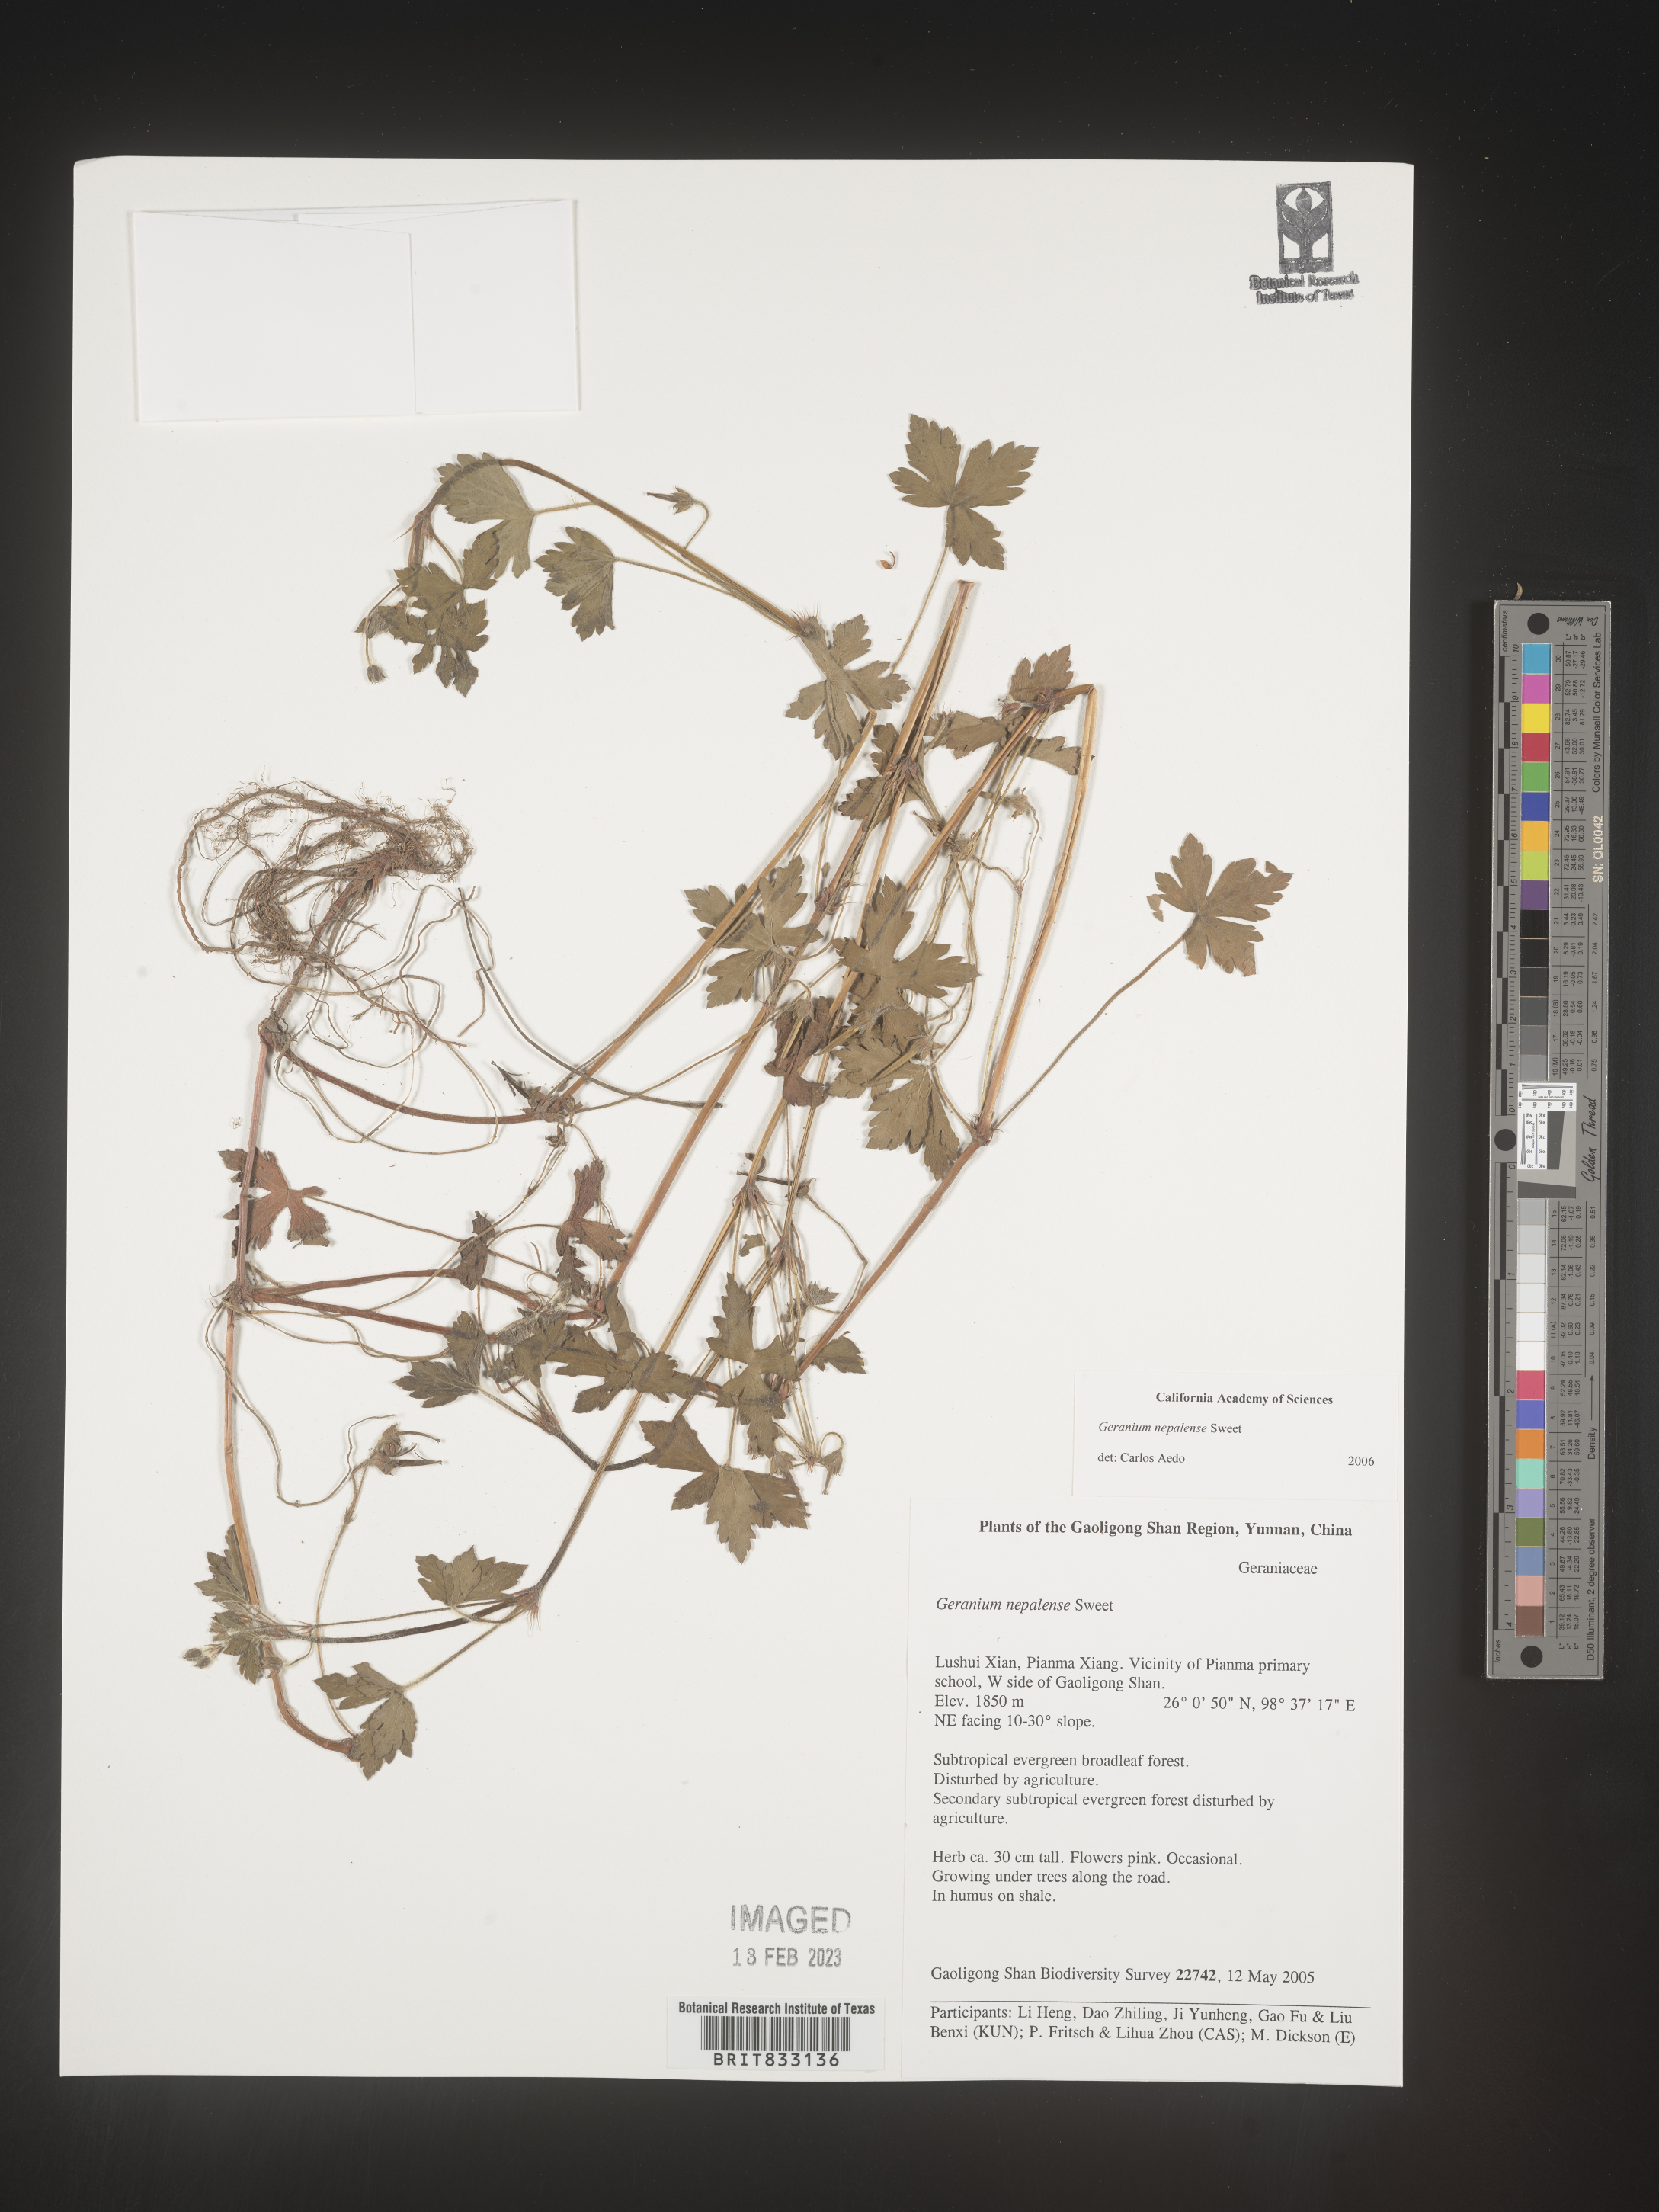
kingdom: Plantae
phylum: Tracheophyta
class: Magnoliopsida
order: Geraniales
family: Geraniaceae
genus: Geranium
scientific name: Geranium nepalense
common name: Nepalese crane's-bill
